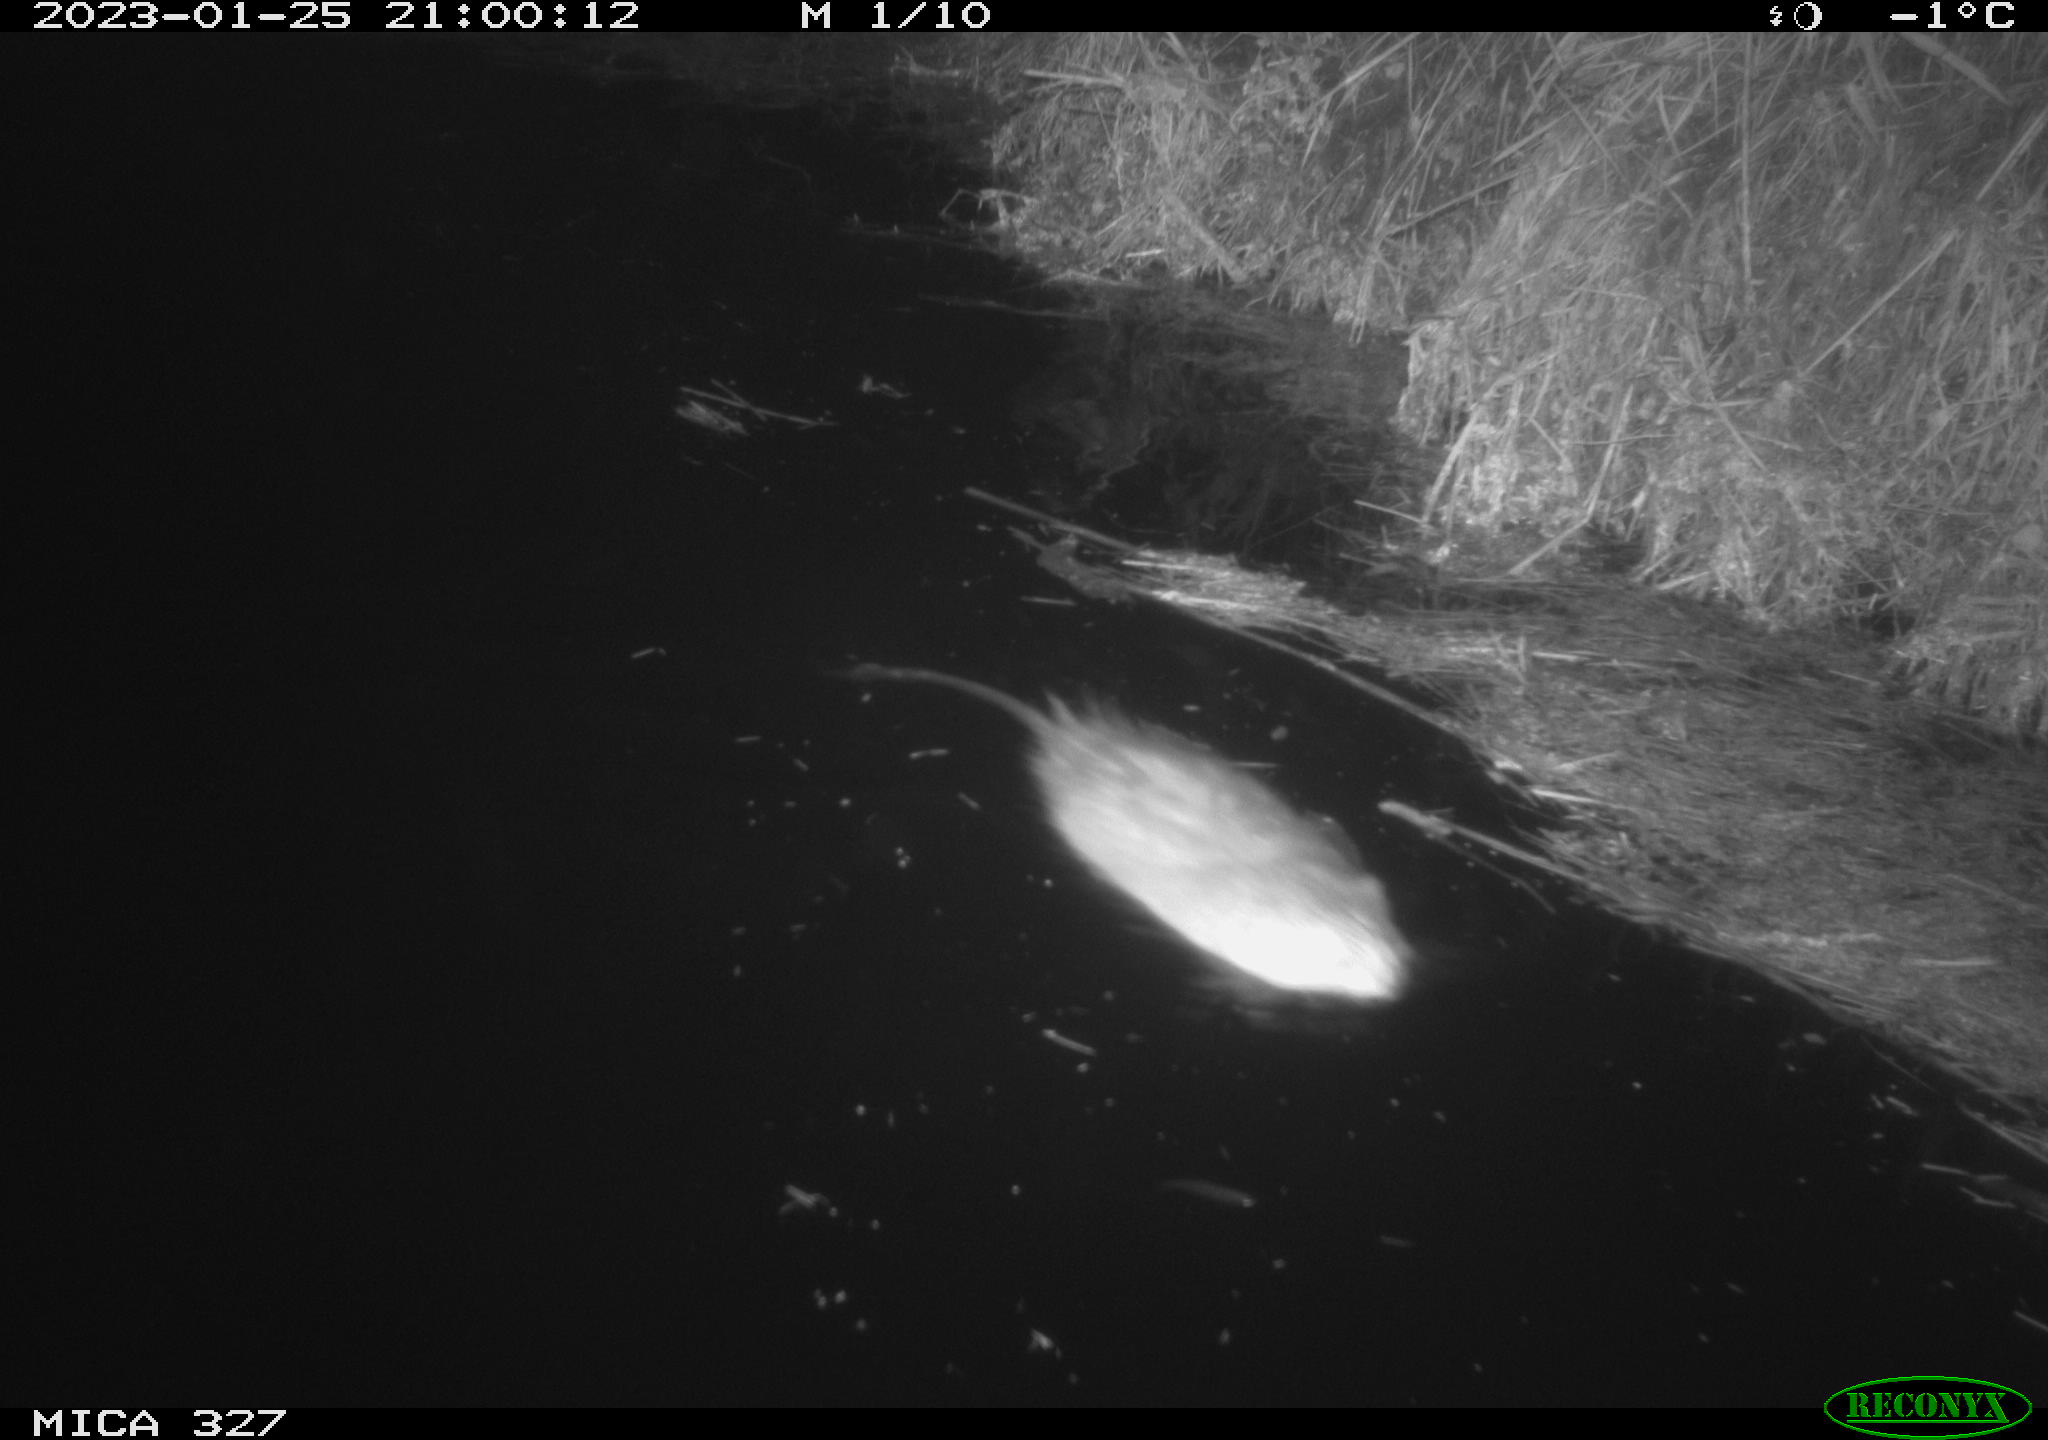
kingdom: Animalia
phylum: Chordata
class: Mammalia
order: Rodentia
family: Cricetidae
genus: Ondatra
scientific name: Ondatra zibethicus
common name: Muskrat
